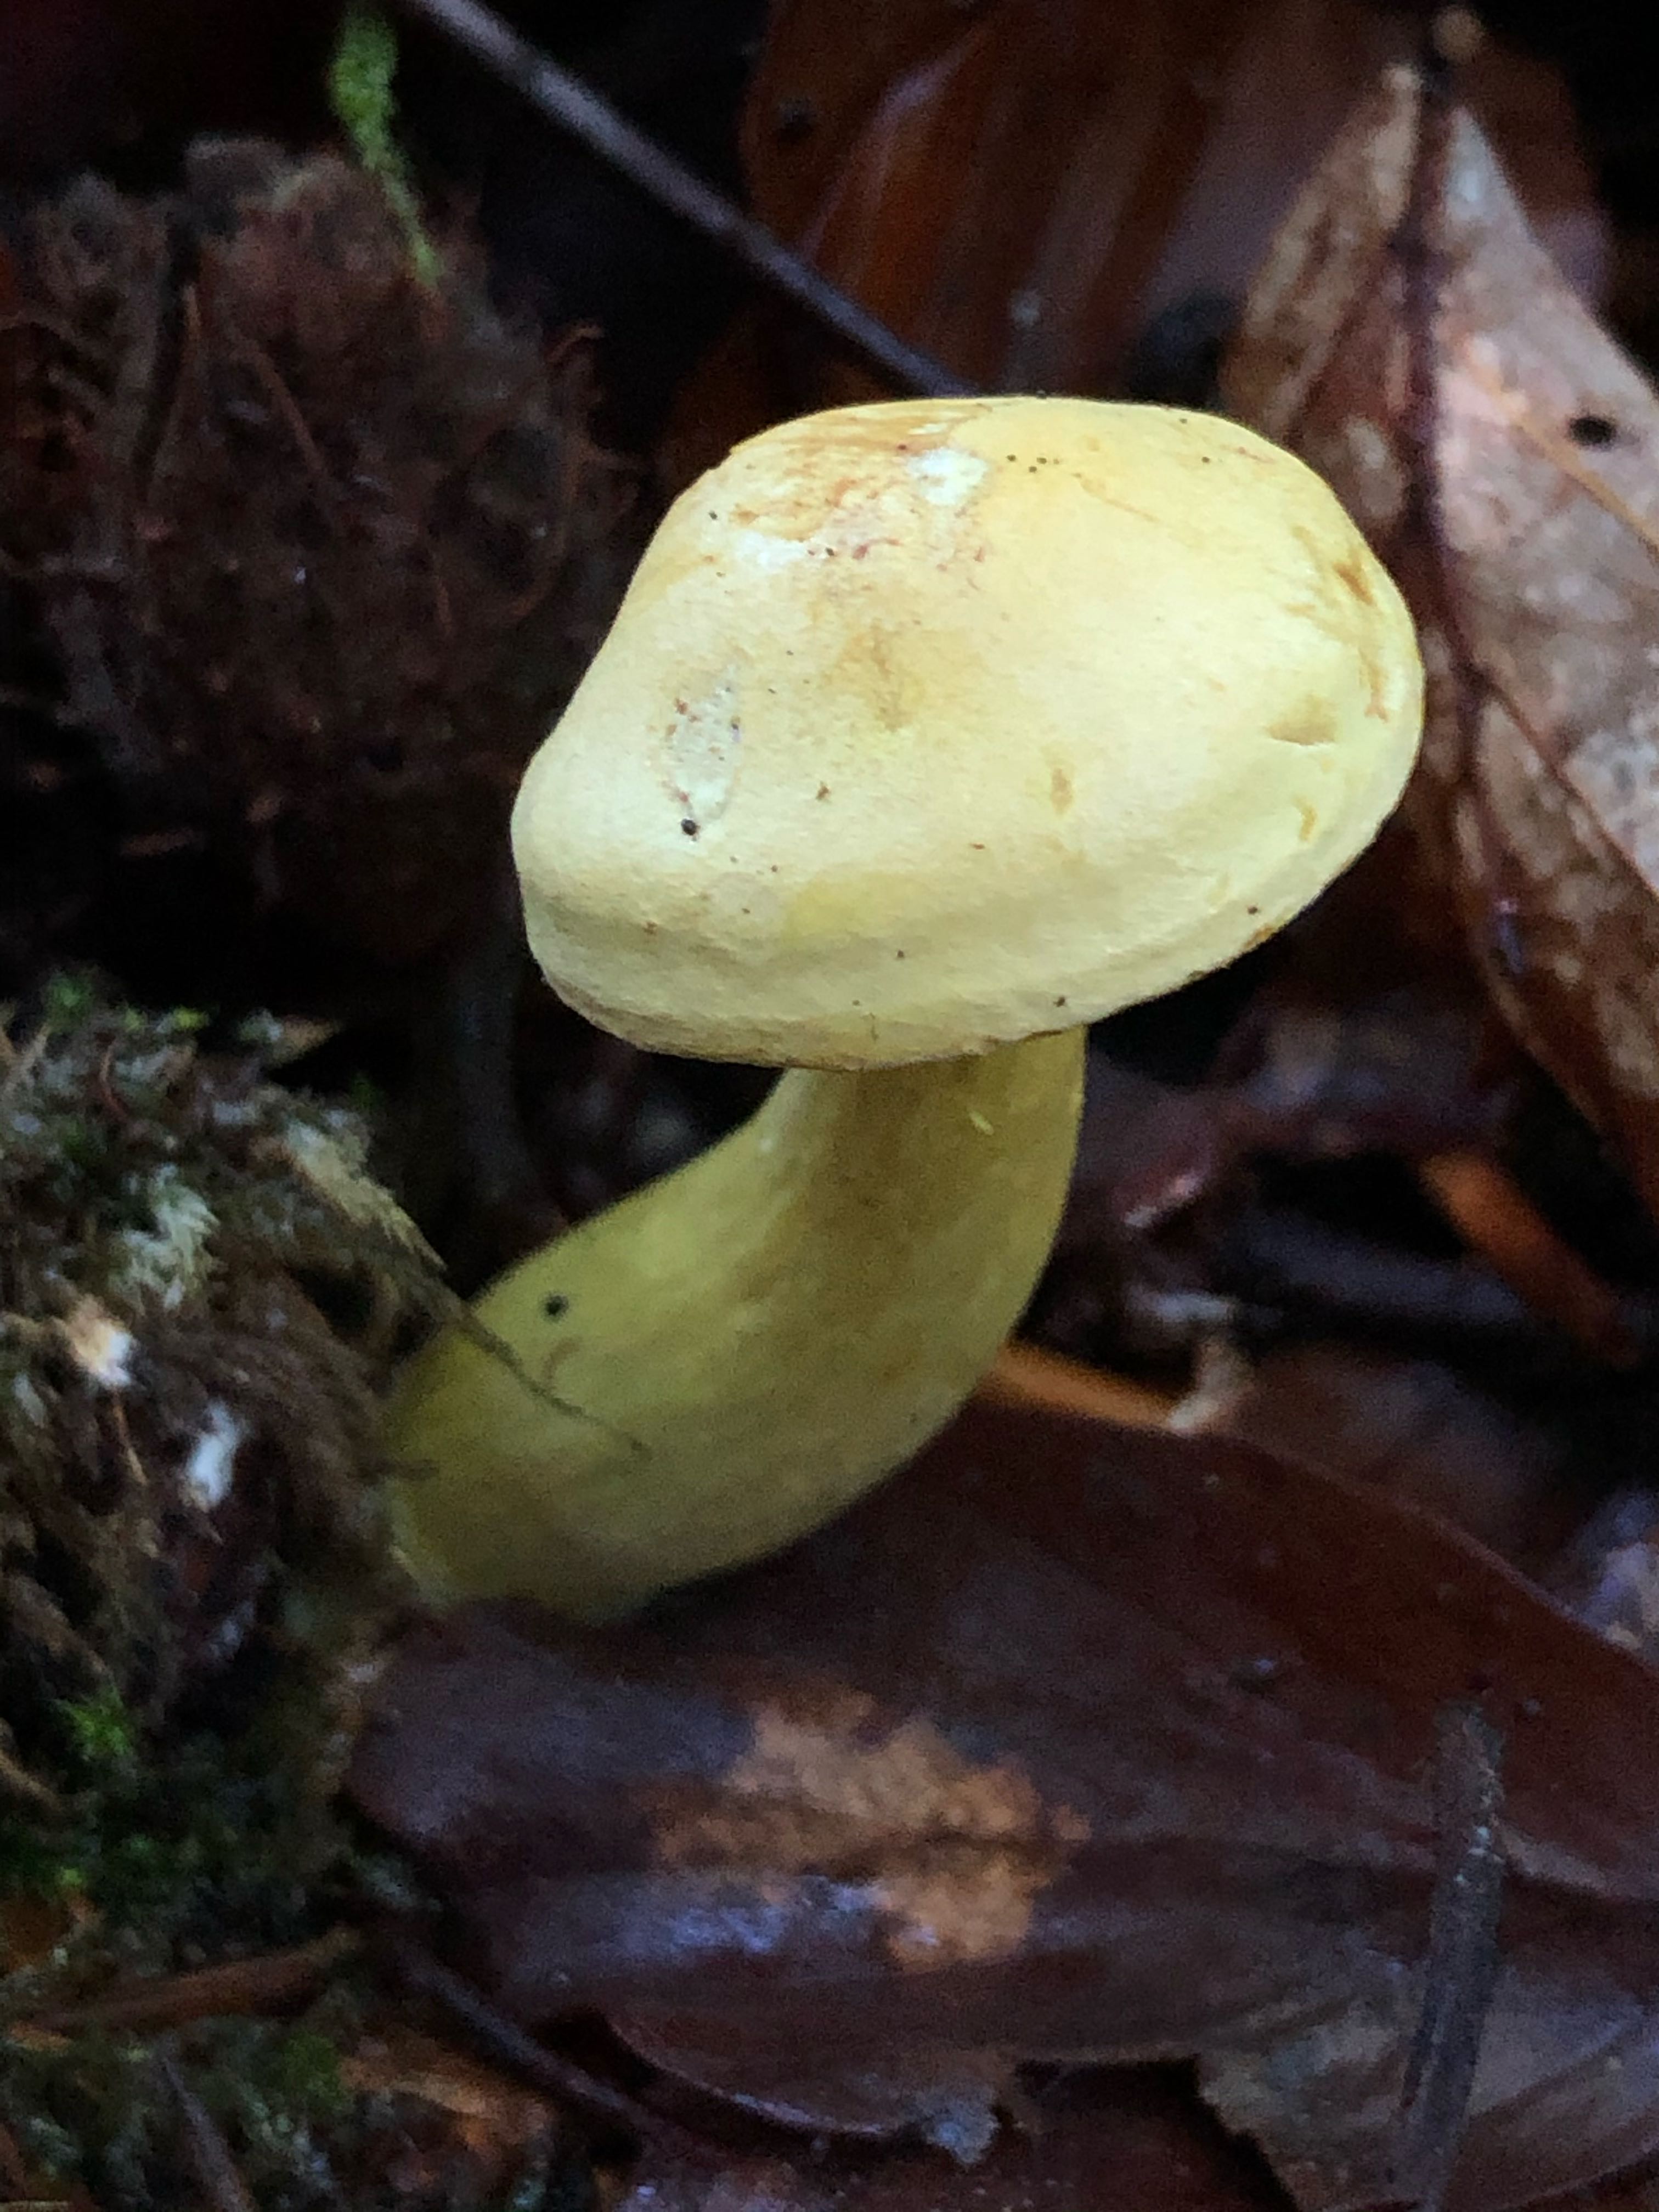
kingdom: Fungi
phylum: Basidiomycota
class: Agaricomycetes
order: Agaricales
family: Tricholomataceae
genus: Tricholoma
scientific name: Tricholoma sulphureum
